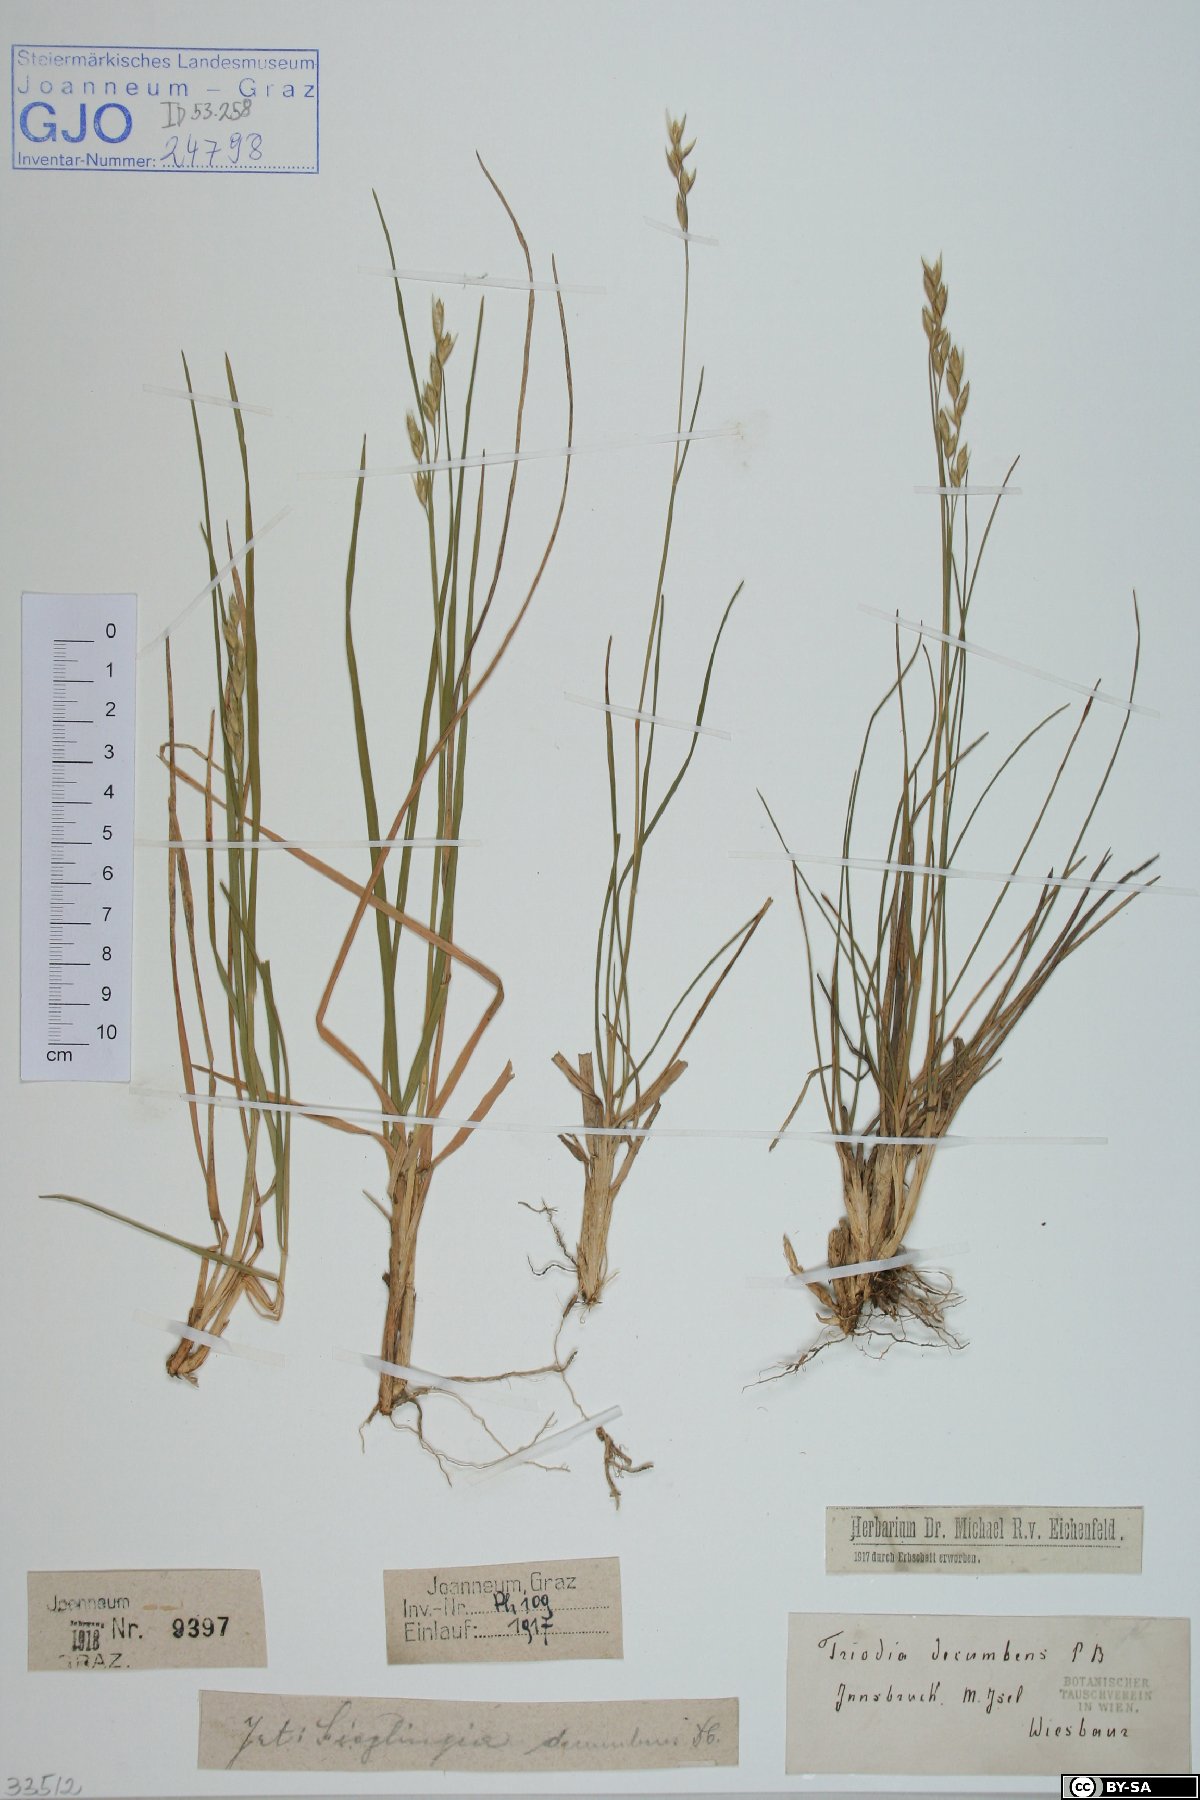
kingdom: Plantae
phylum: Tracheophyta
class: Liliopsida
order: Poales
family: Poaceae
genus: Danthonia
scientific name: Danthonia decumbens
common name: Common heathgrass
